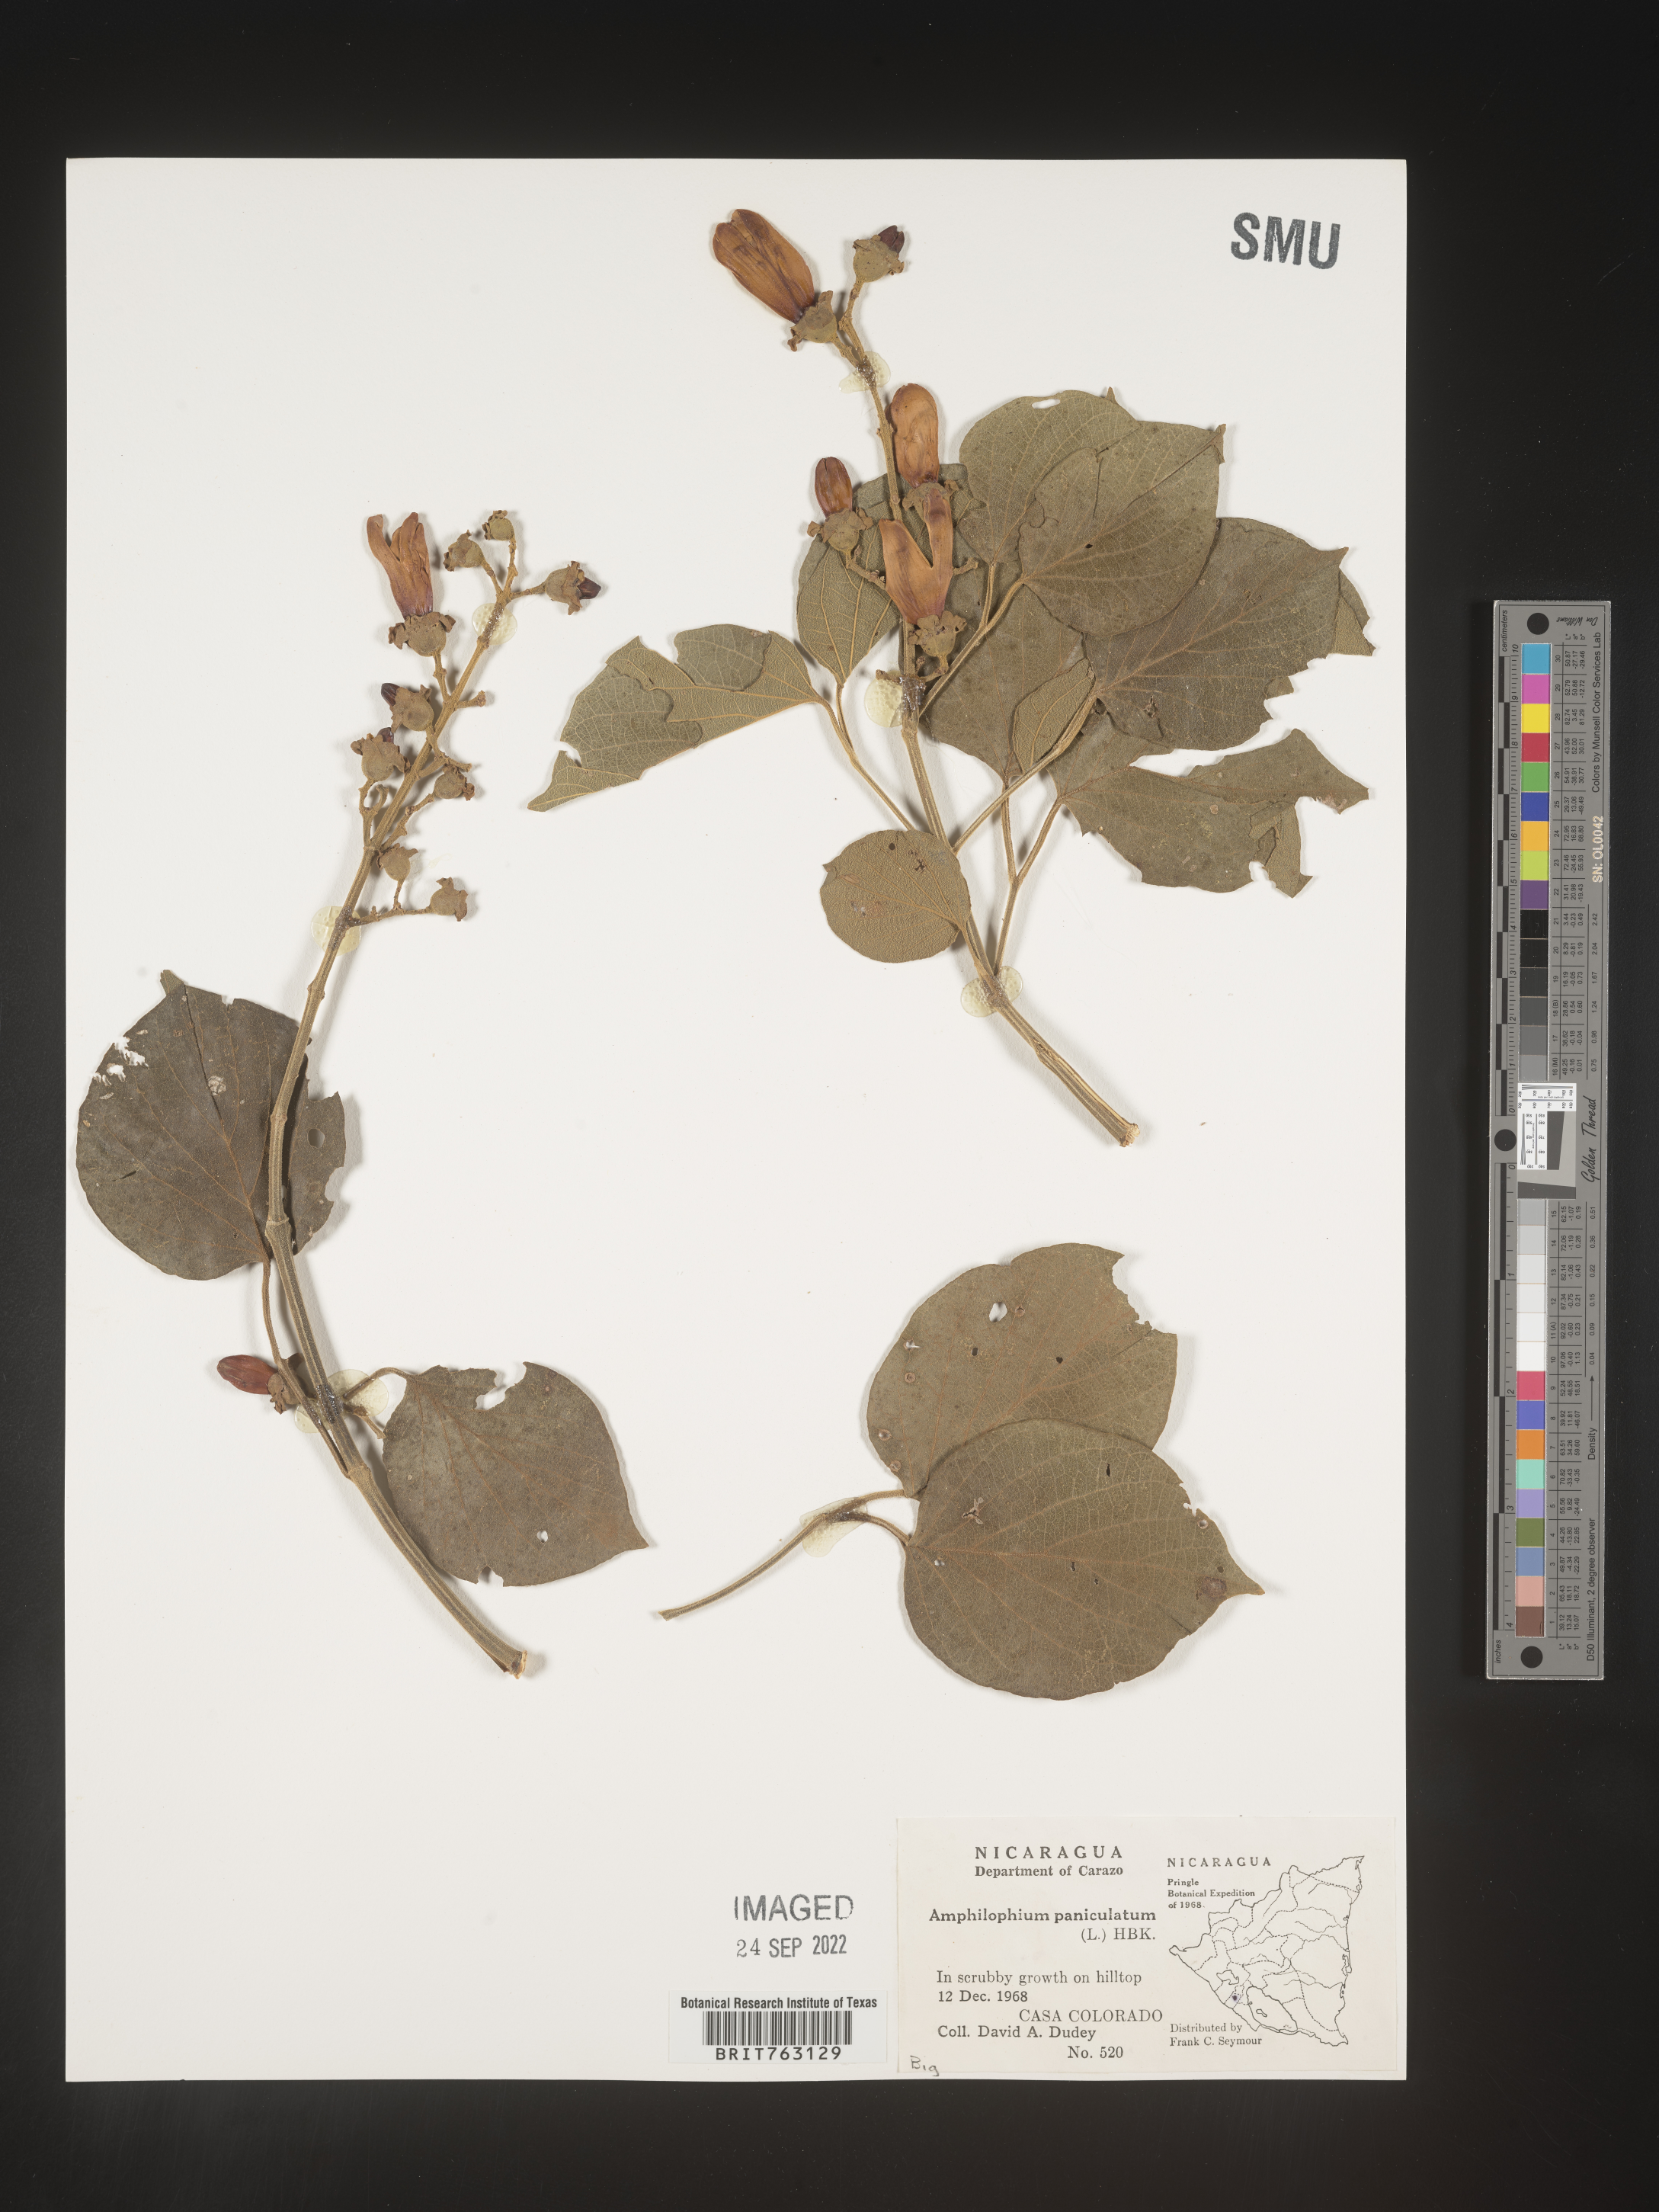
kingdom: Plantae
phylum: Tracheophyta
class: Magnoliopsida
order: Lamiales
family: Bignoniaceae
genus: Amphilophium
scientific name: Amphilophium
